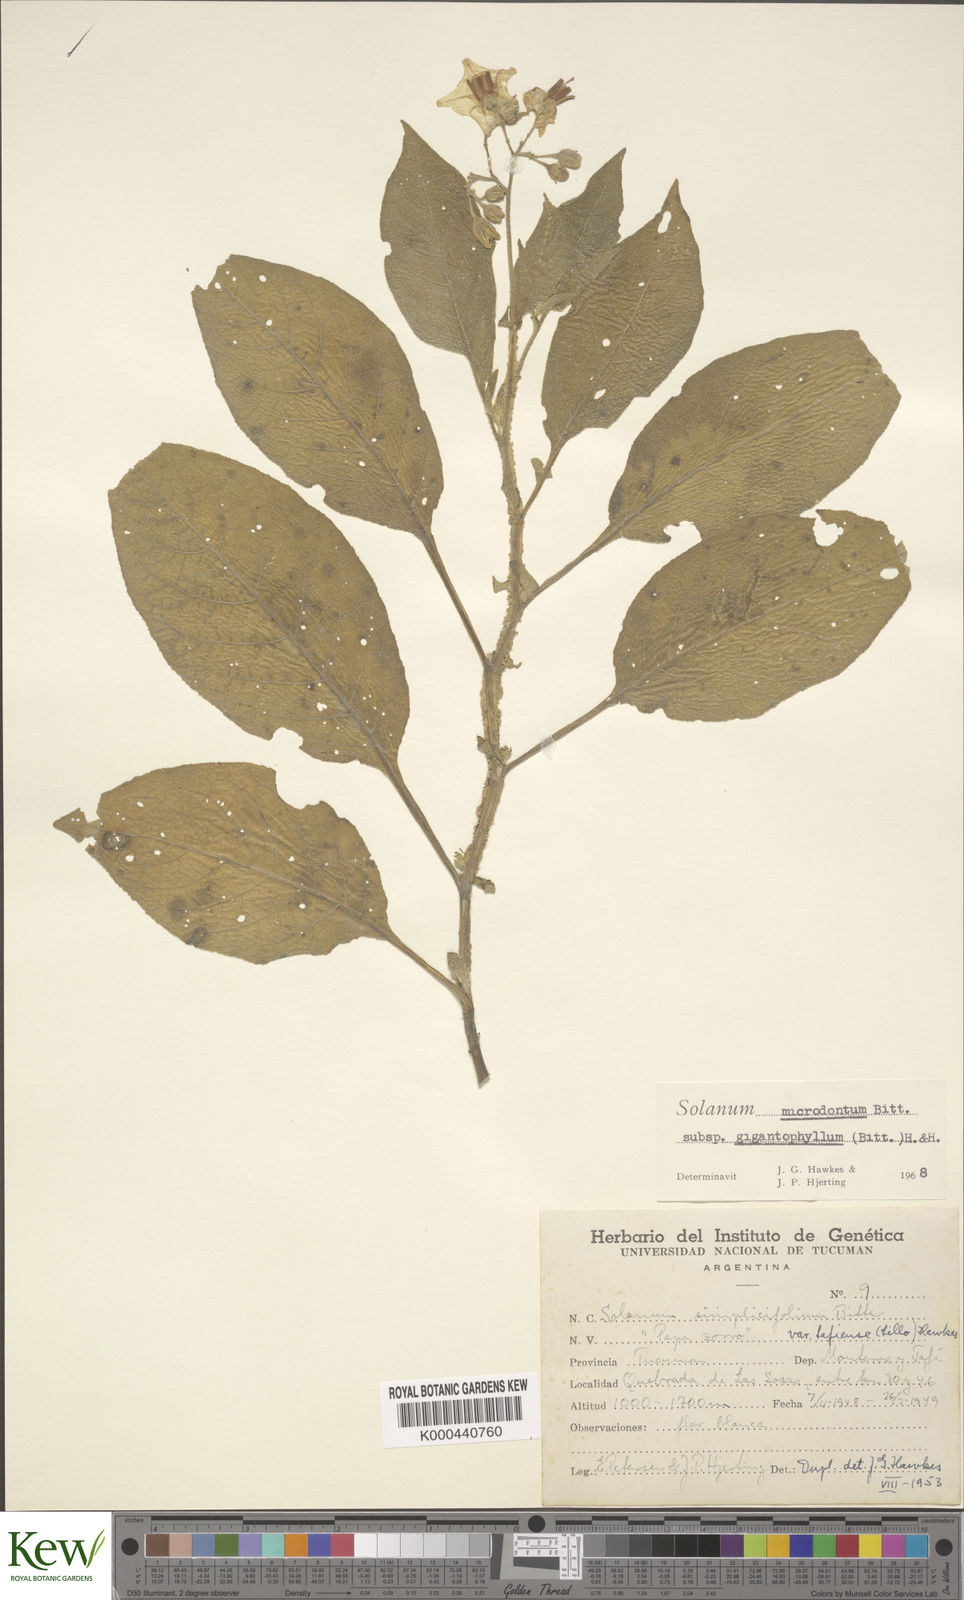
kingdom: Plantae
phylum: Tracheophyta
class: Magnoliopsida
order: Solanales
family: Solanaceae
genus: Solanum
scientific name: Solanum microdontum
